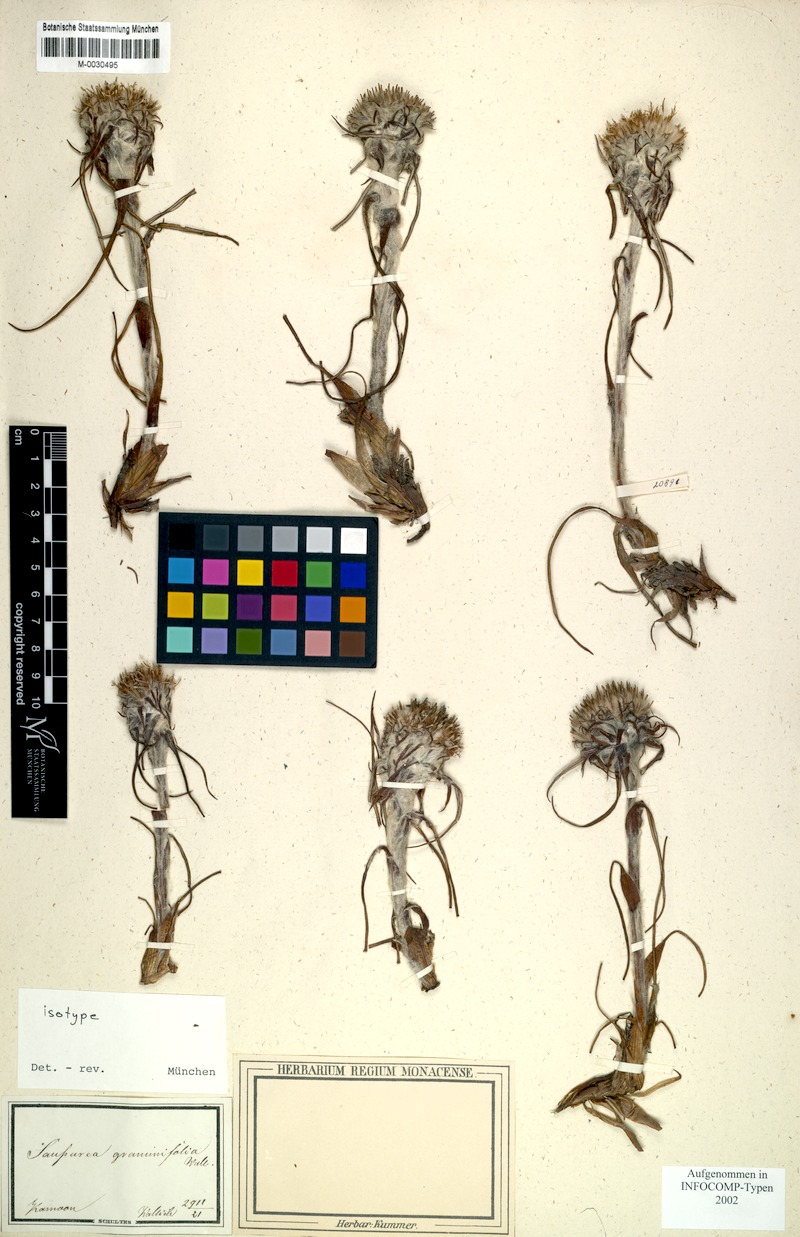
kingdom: Plantae
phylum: Tracheophyta
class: Magnoliopsida
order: Asterales
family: Asteraceae
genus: Saussurea
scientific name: Saussurea graminifolia
